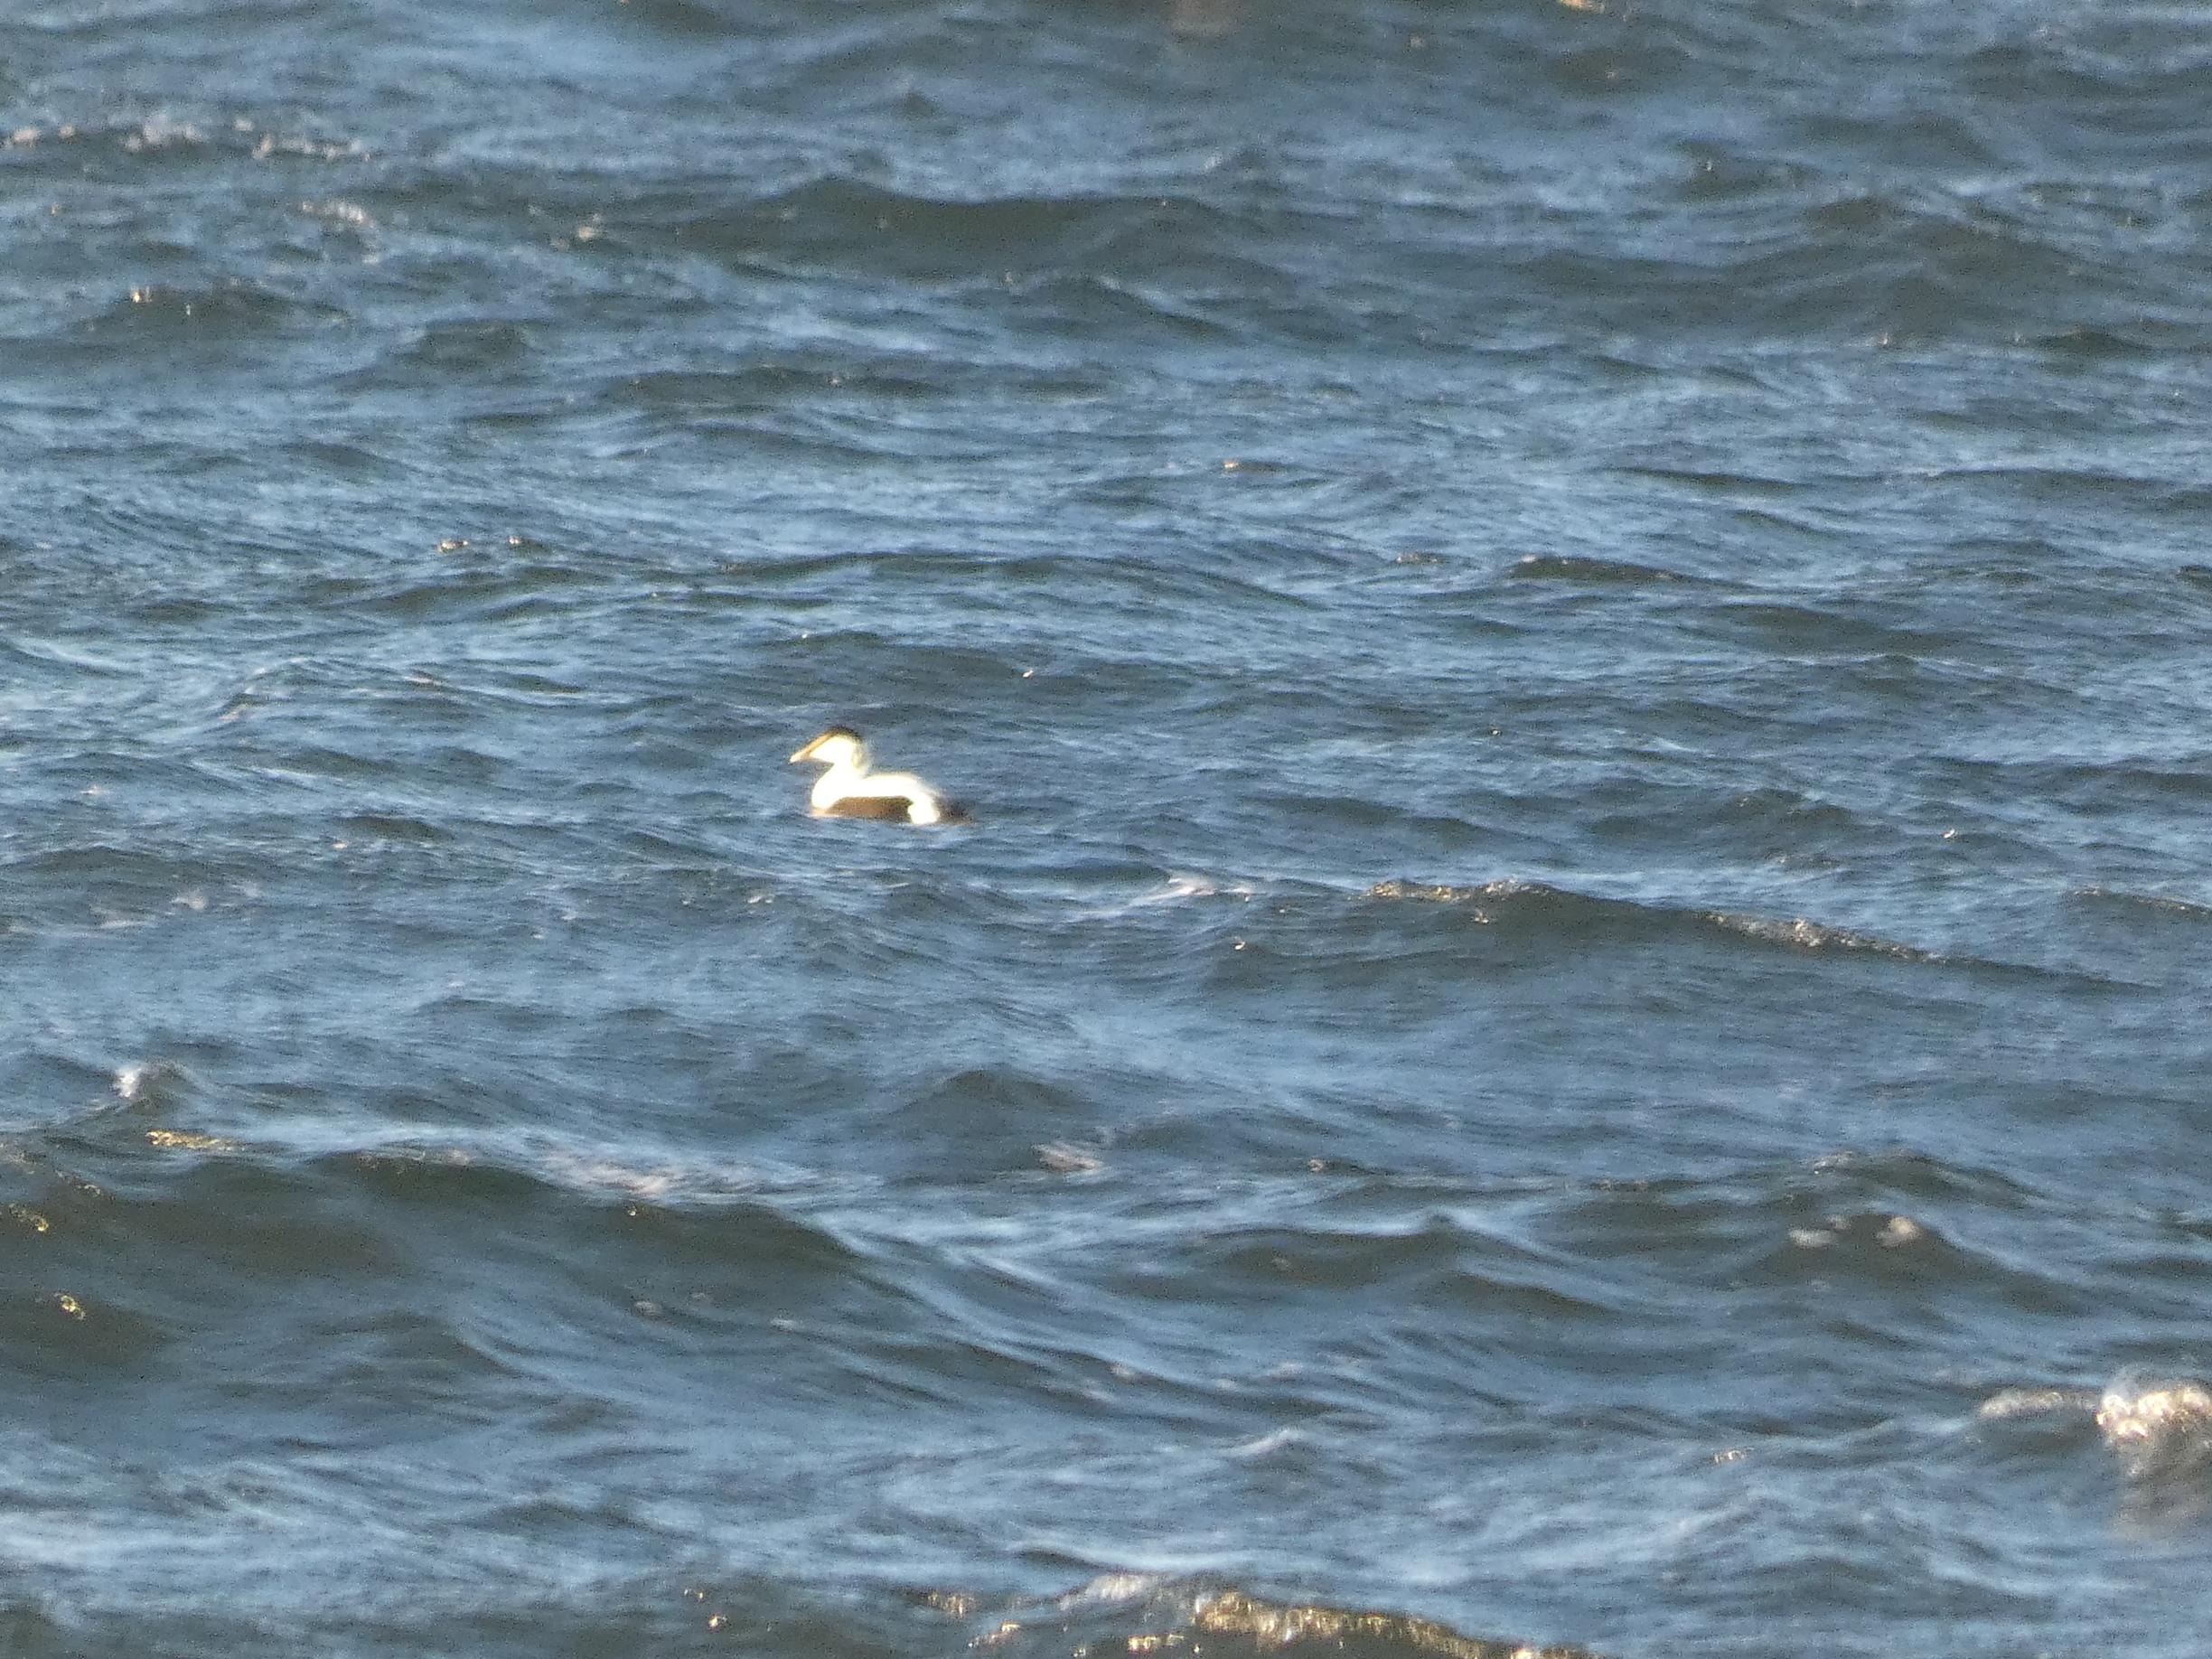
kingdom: Animalia
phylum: Chordata
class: Aves
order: Anseriformes
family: Anatidae
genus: Somateria
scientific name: Somateria mollissima
